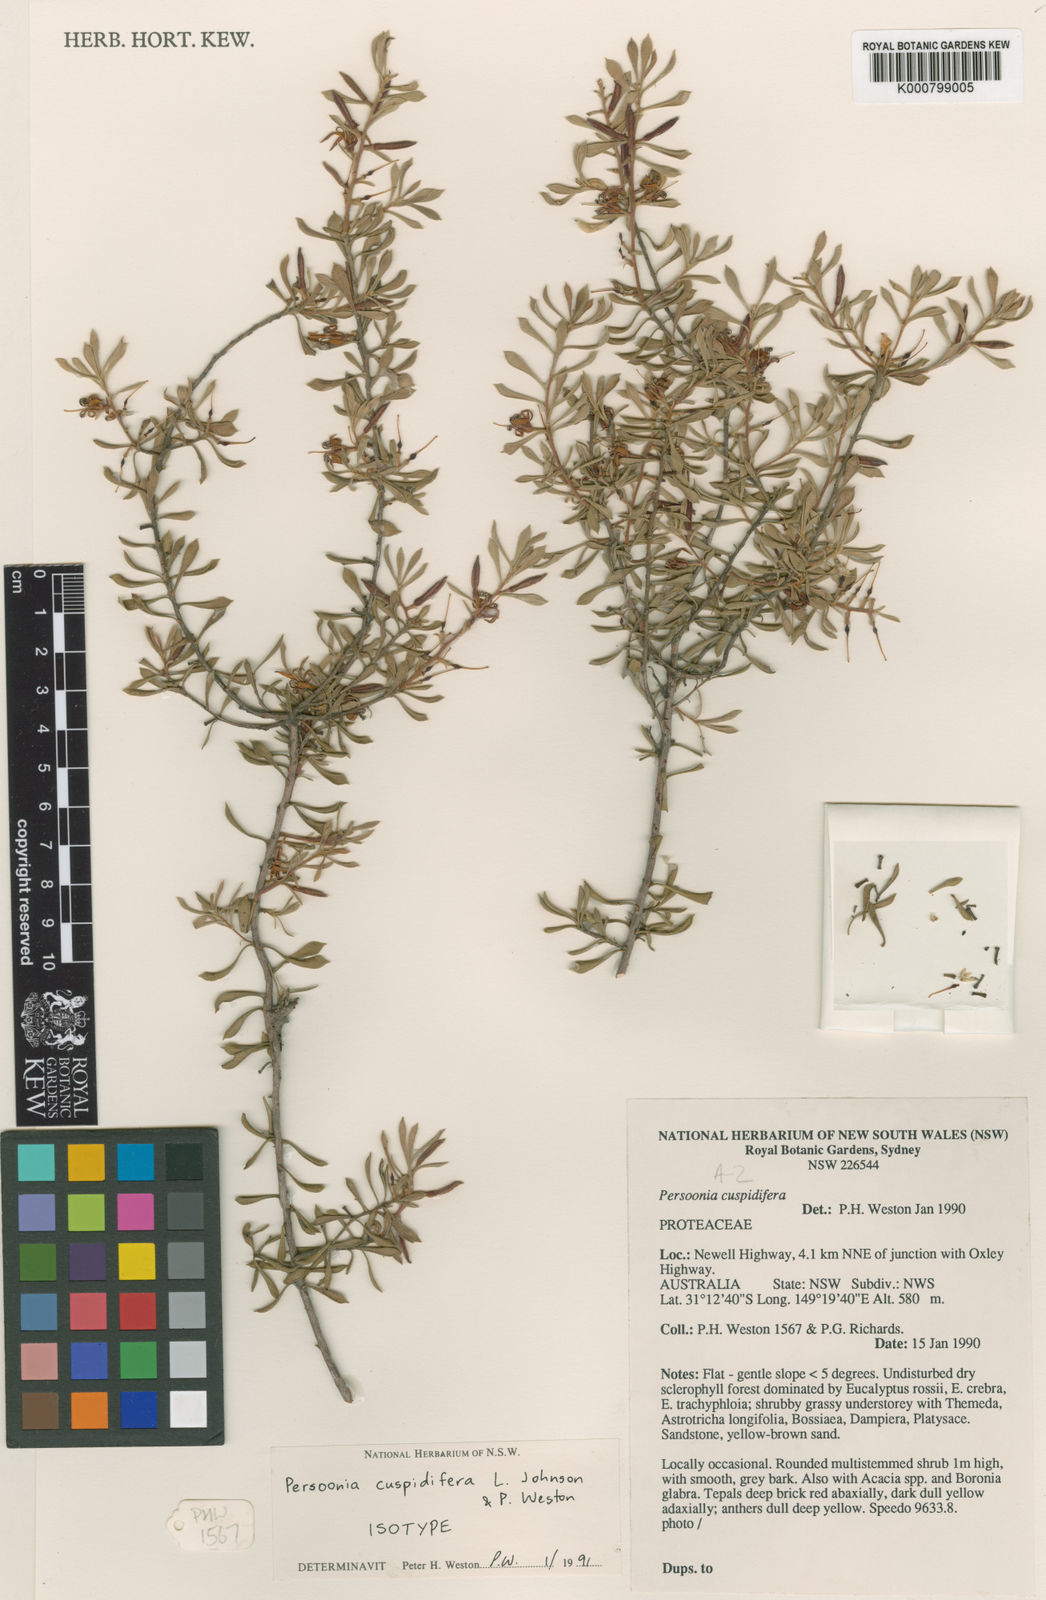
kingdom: Plantae
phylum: Tracheophyta
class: Magnoliopsida
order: Proteales
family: Proteaceae
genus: Persoonia
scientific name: Persoonia cuspidifera
